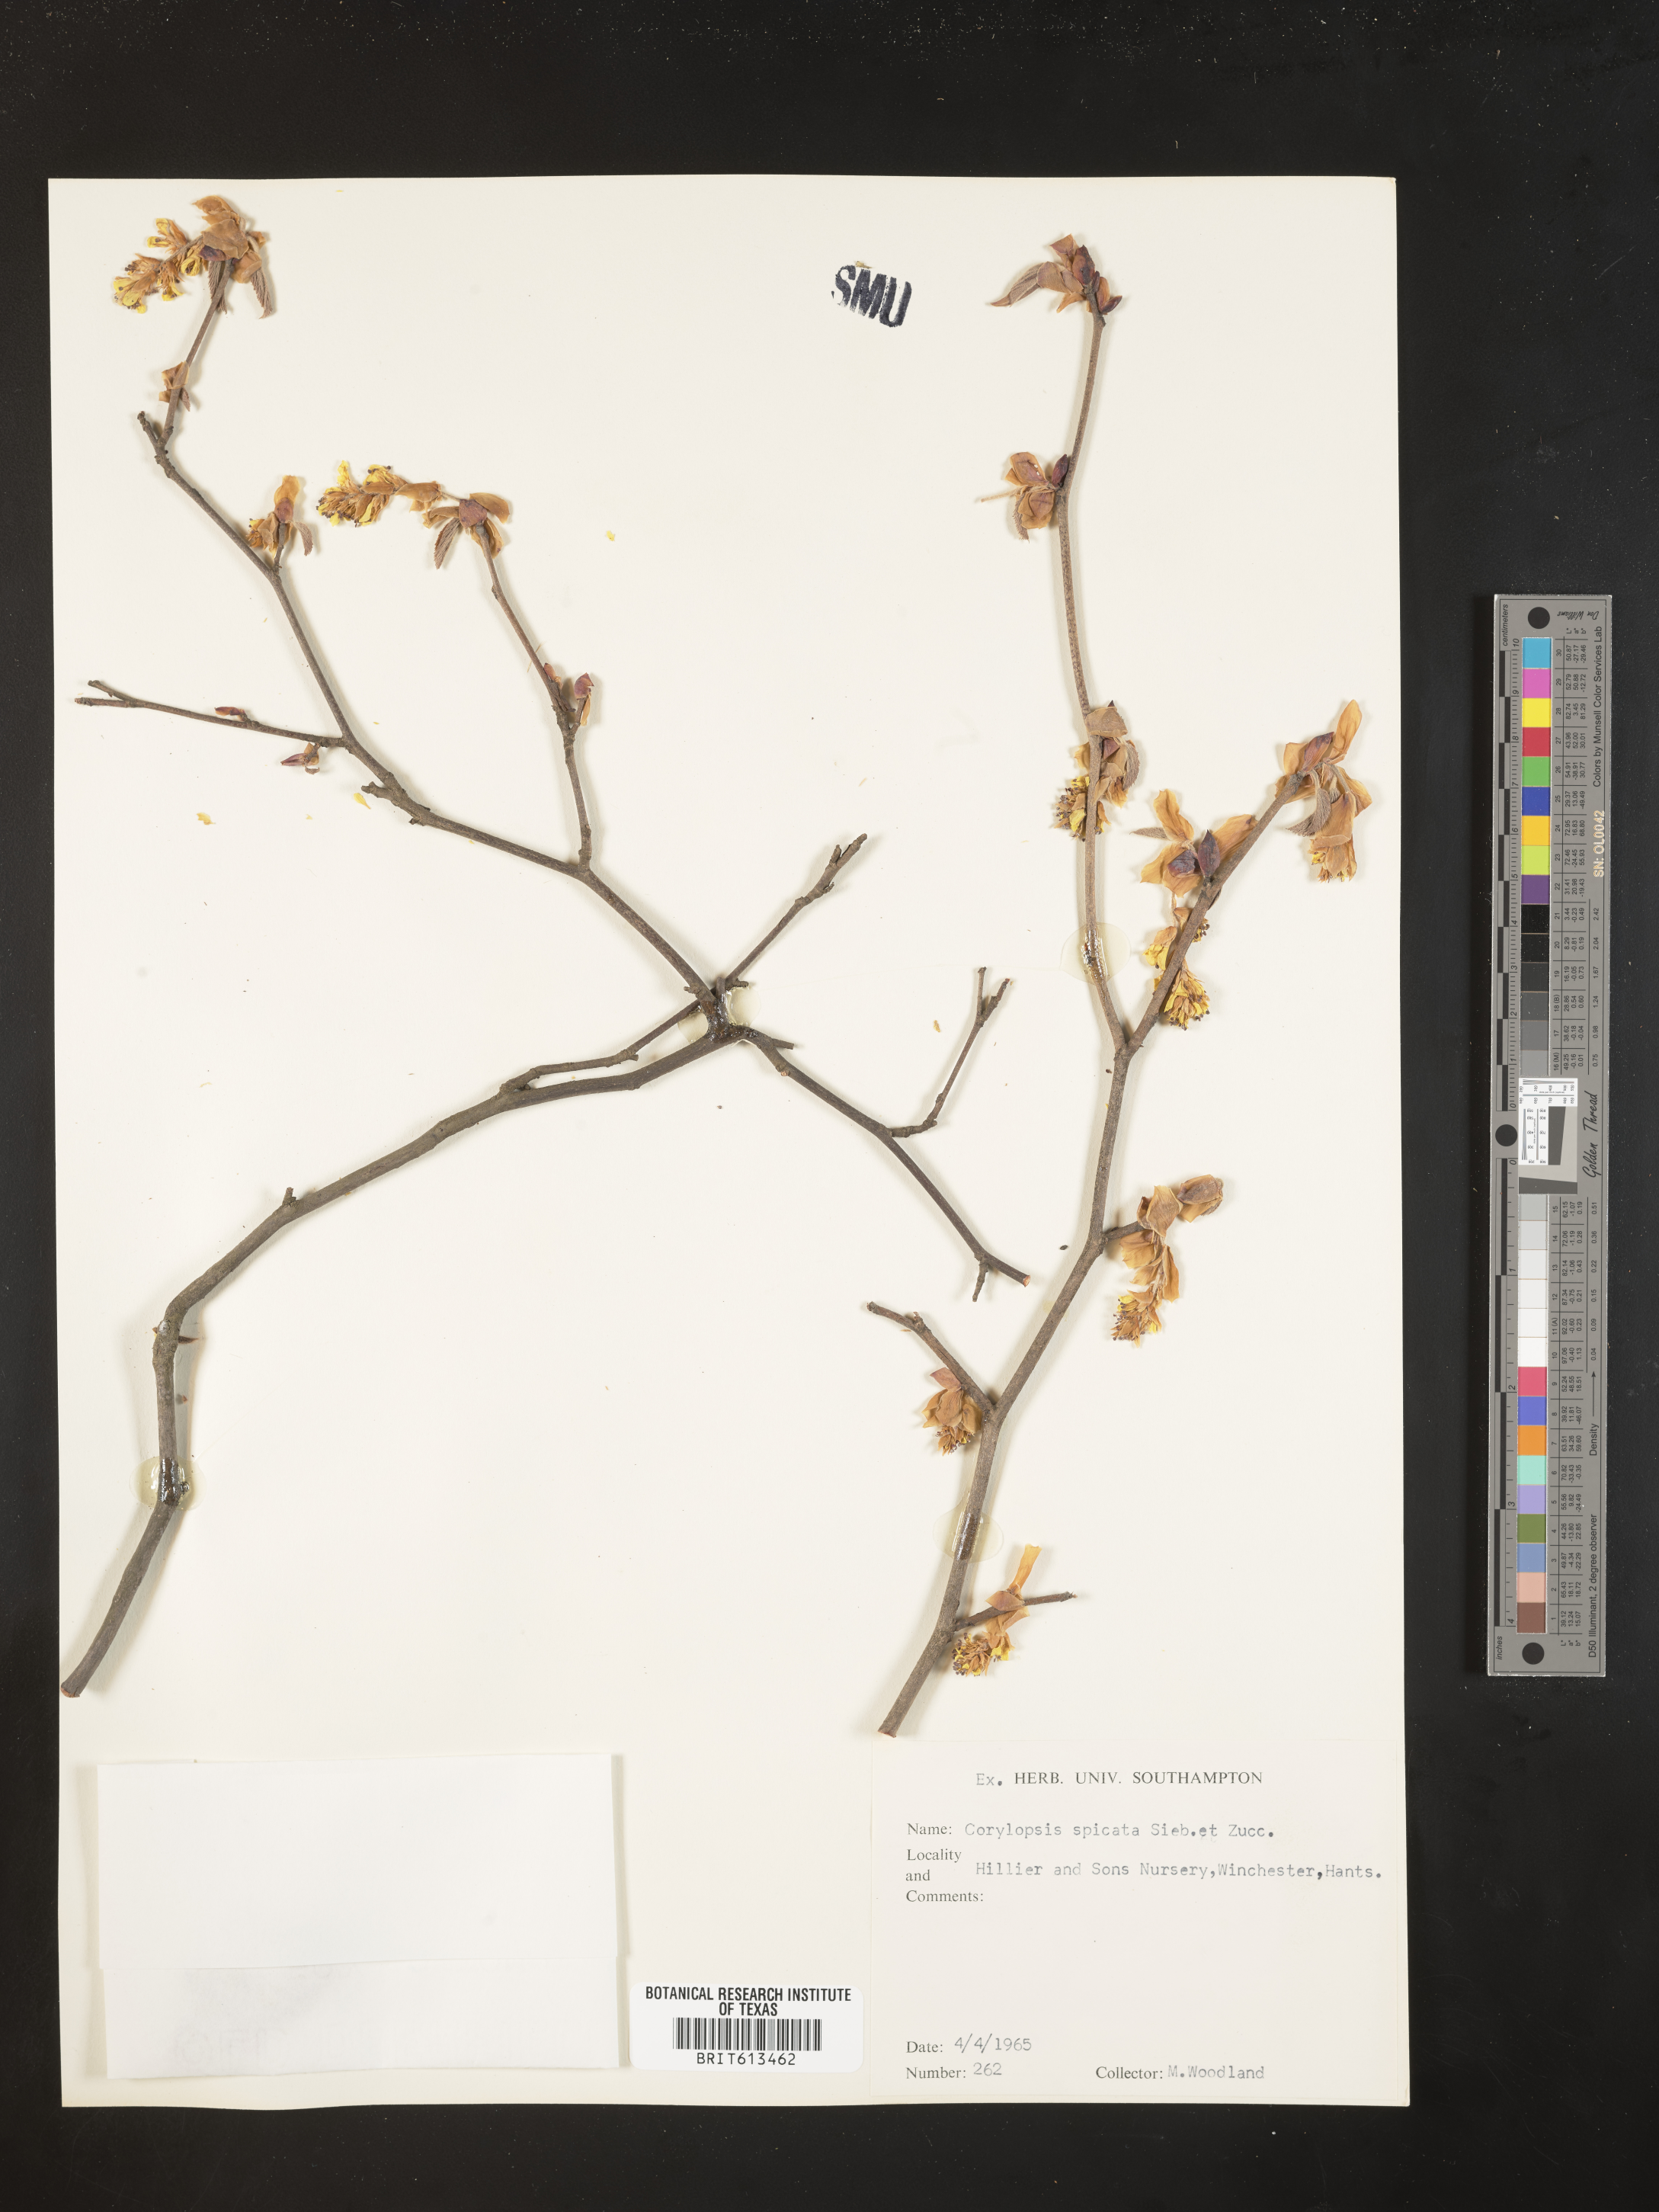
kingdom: Plantae
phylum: Tracheophyta
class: Magnoliopsida
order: Saxifragales
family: Hamamelidaceae
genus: Corylopsis
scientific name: Corylopsis spicata
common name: Spike winter-hazel
